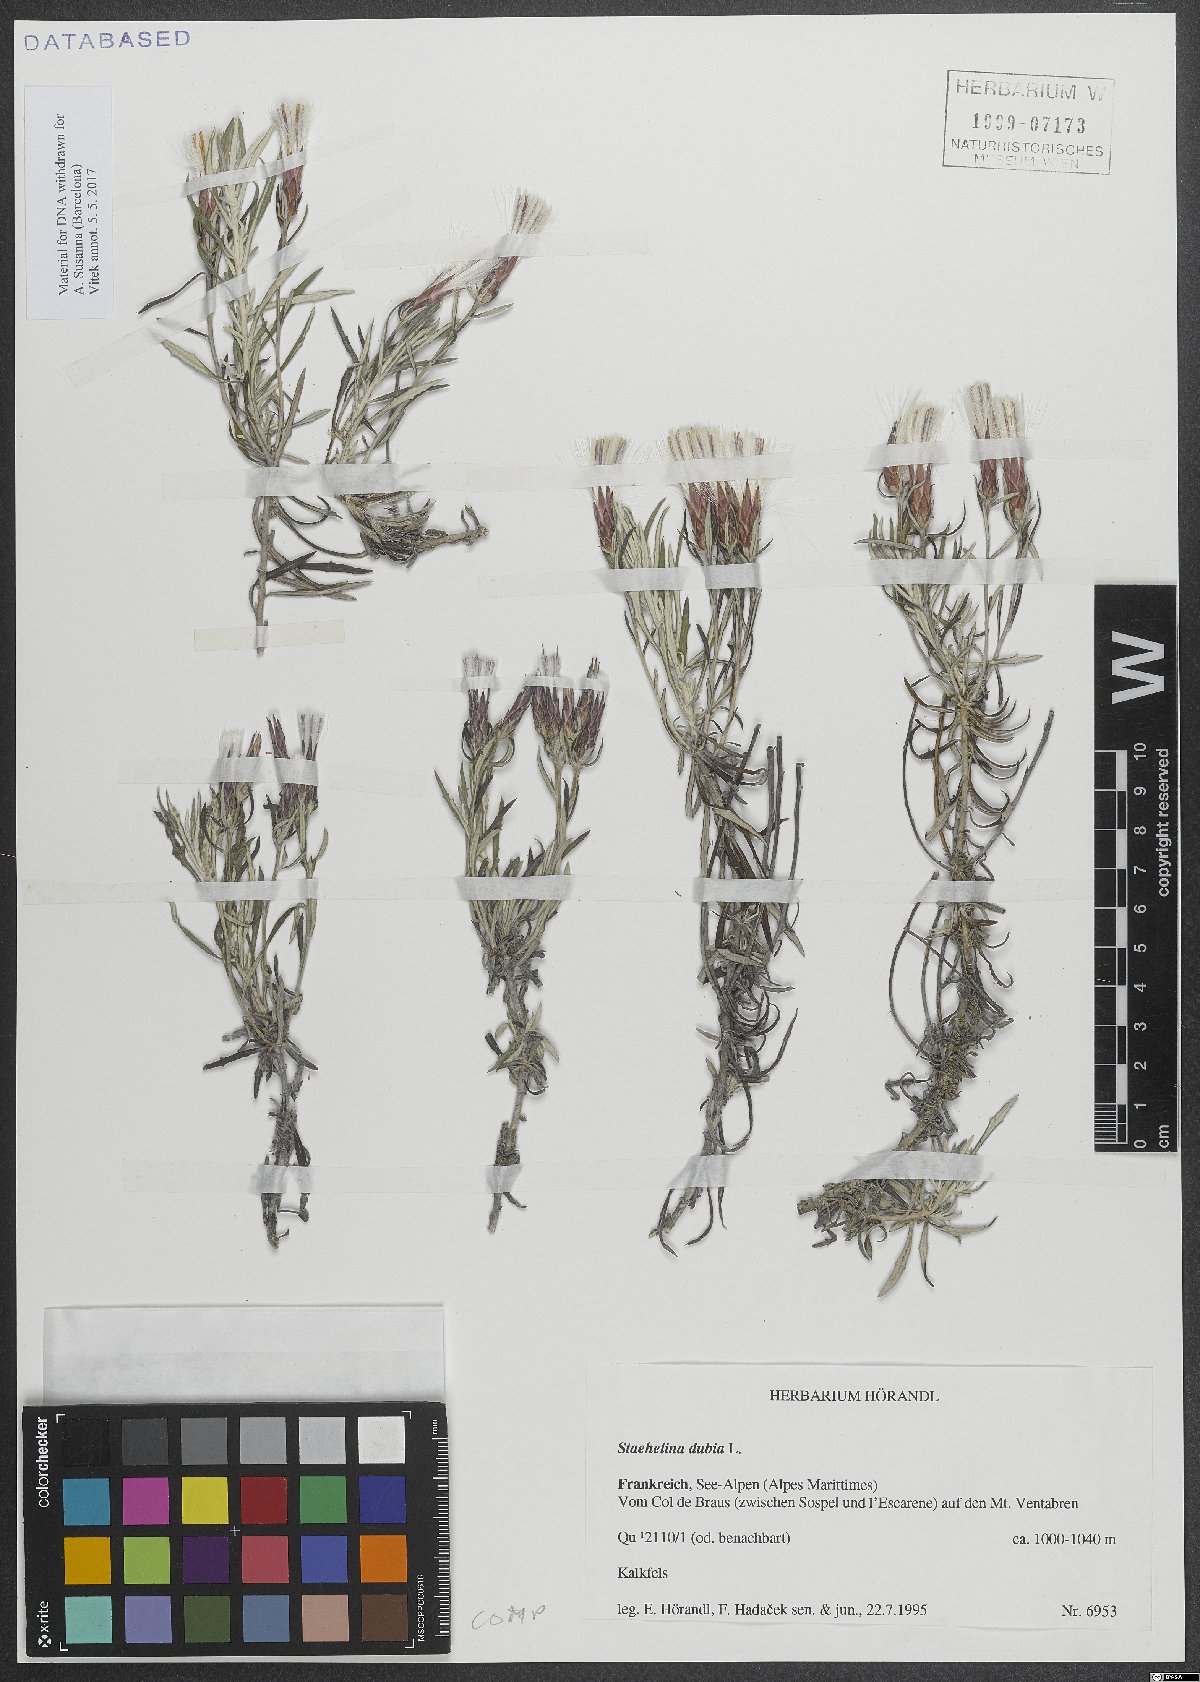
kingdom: Plantae
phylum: Tracheophyta
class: Magnoliopsida
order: Asterales
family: Asteraceae
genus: Staehelina
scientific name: Staehelina dubia
